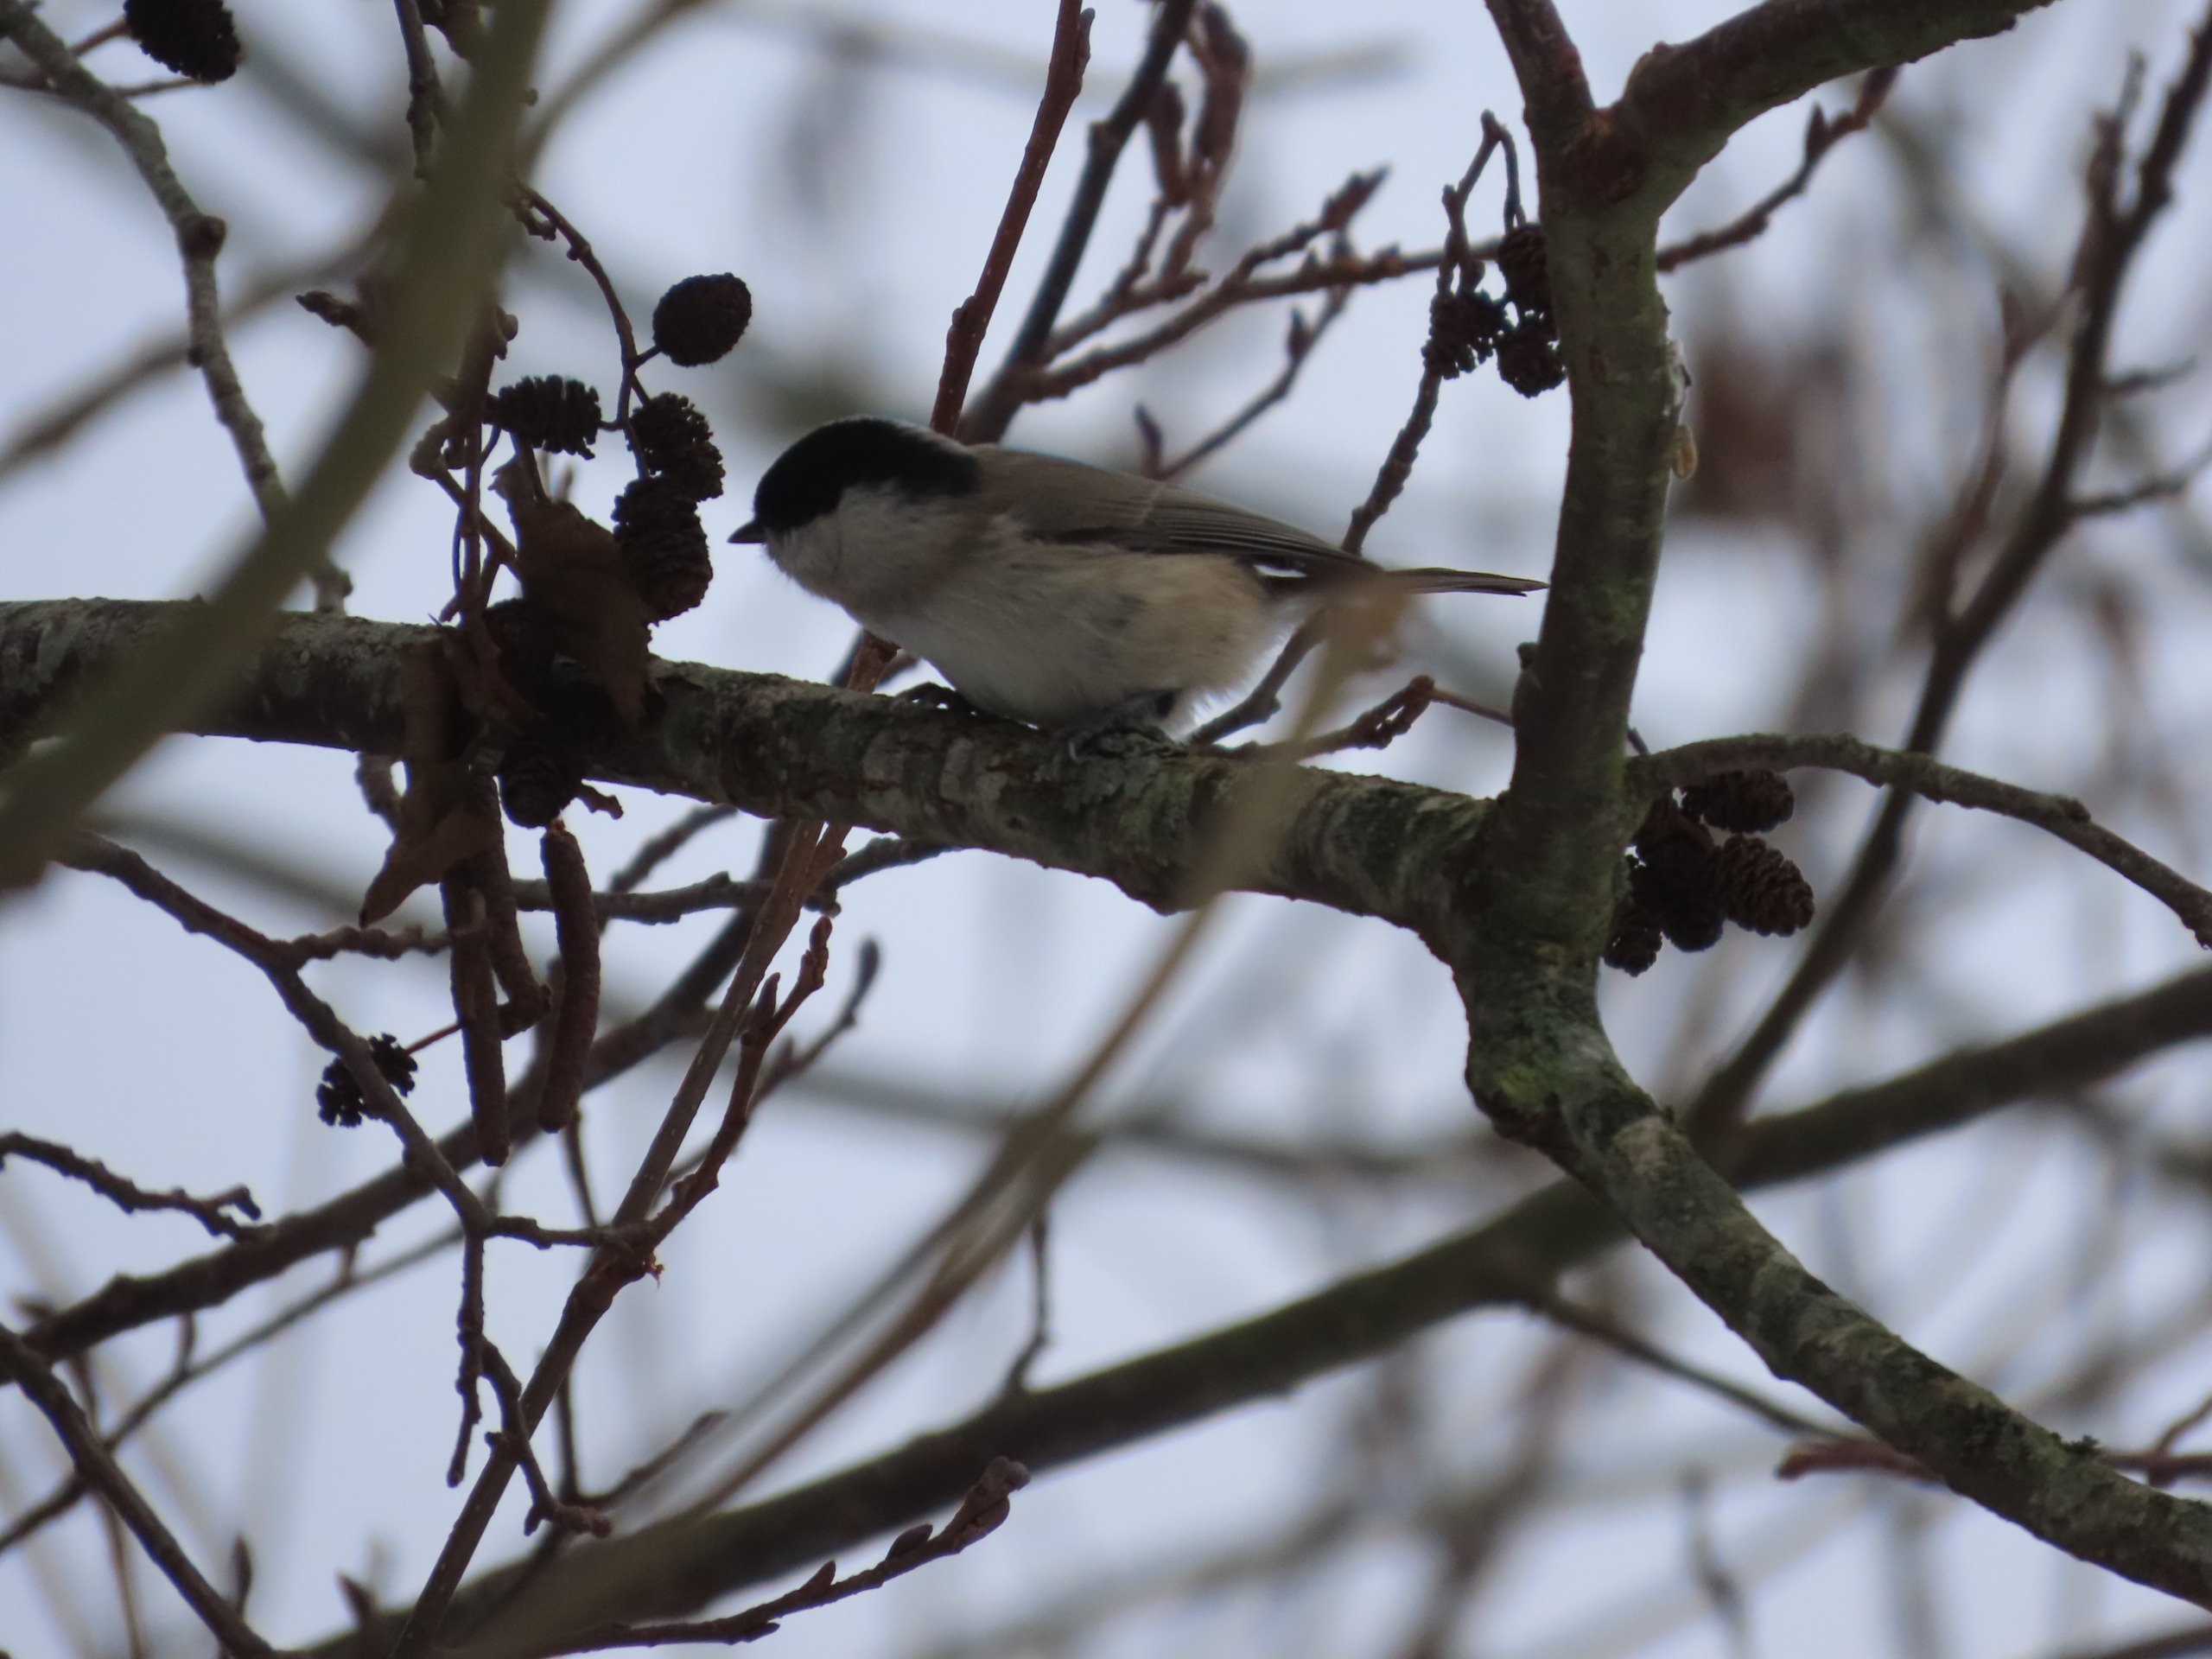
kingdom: Animalia
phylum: Chordata
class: Aves
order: Passeriformes
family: Paridae
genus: Poecile
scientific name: Poecile palustris
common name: Sumpmejse
